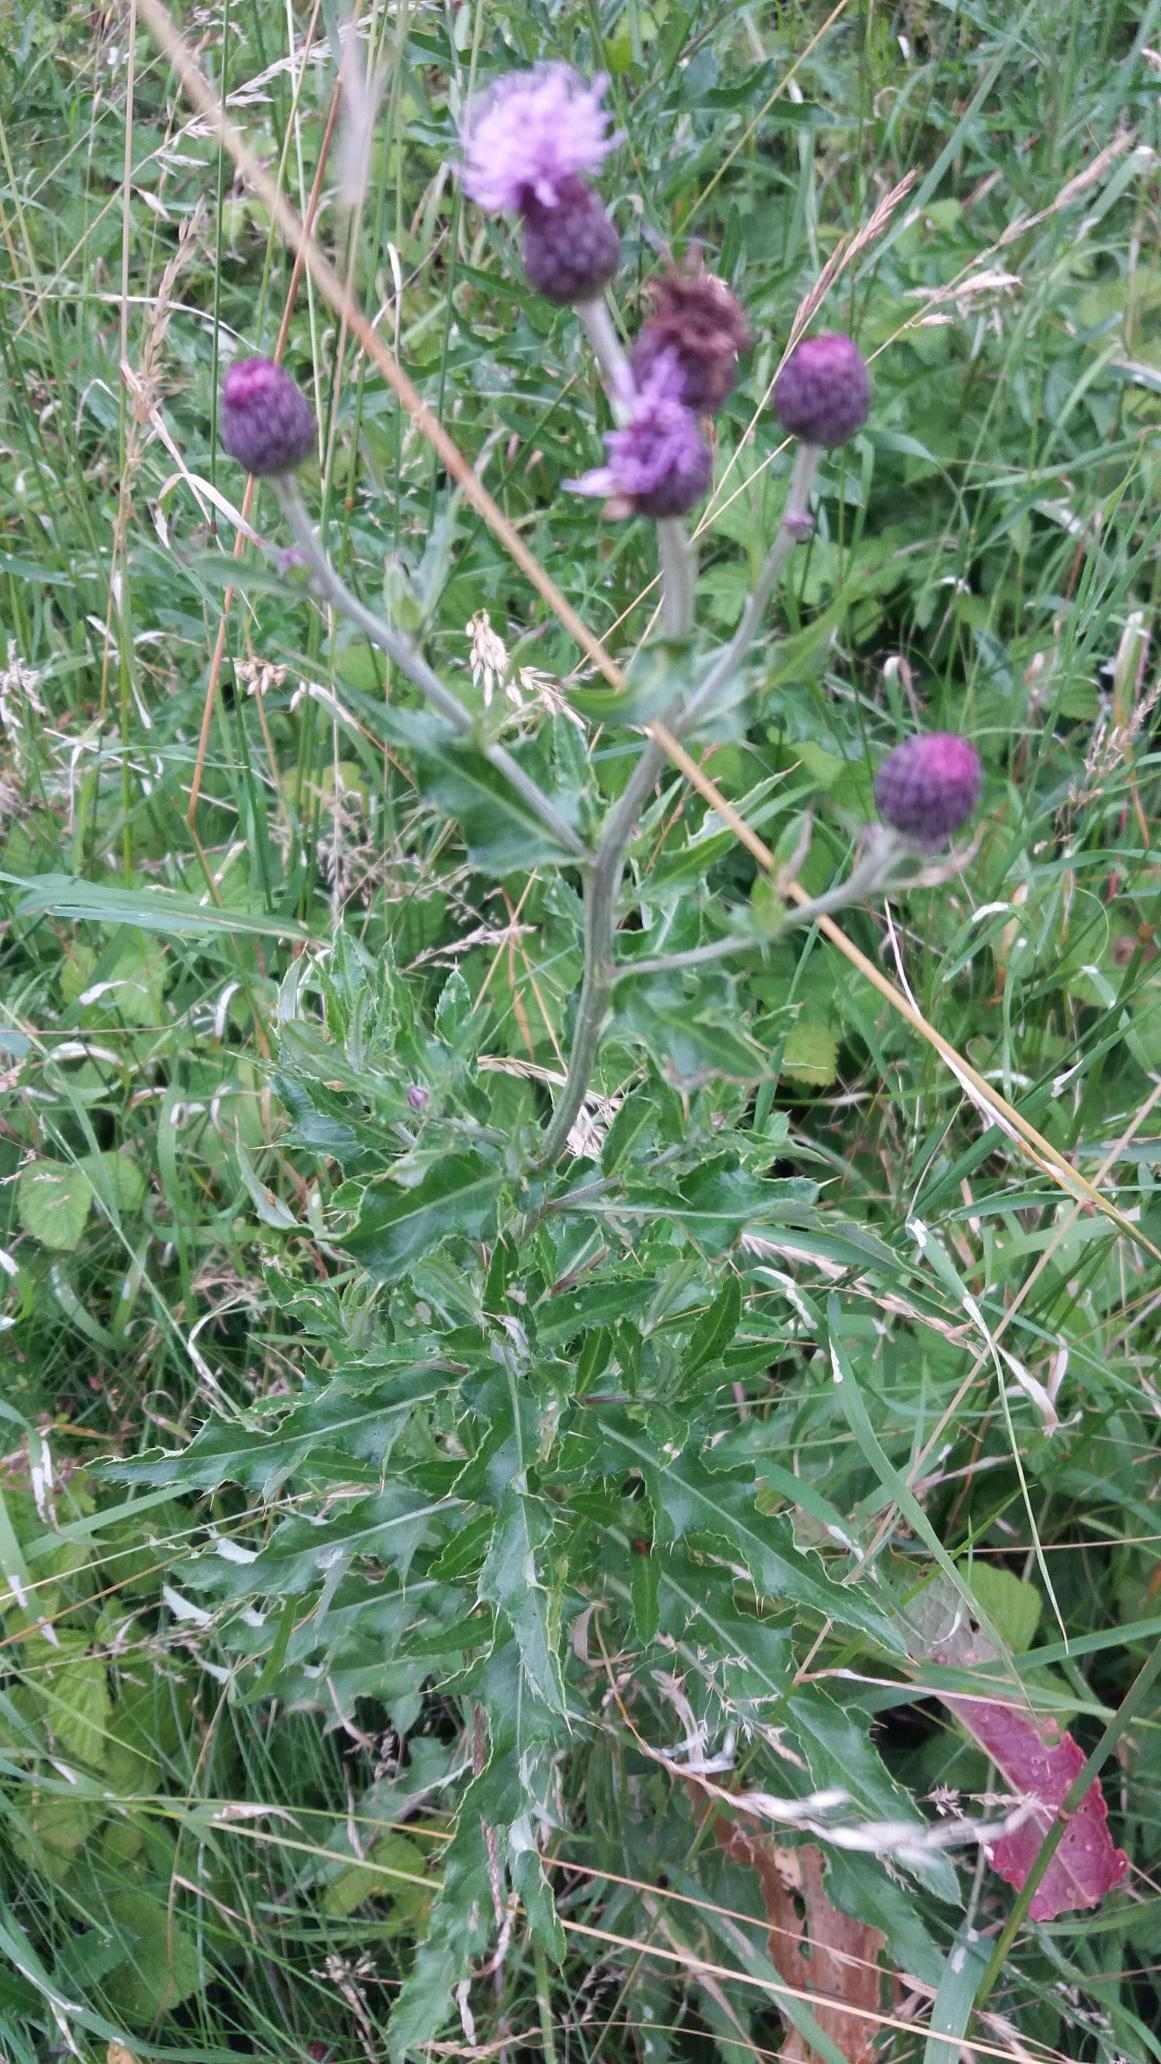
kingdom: Plantae
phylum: Tracheophyta
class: Magnoliopsida
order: Asterales
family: Asteraceae
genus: Cirsium
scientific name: Cirsium arvense
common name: Ager-tidsel
